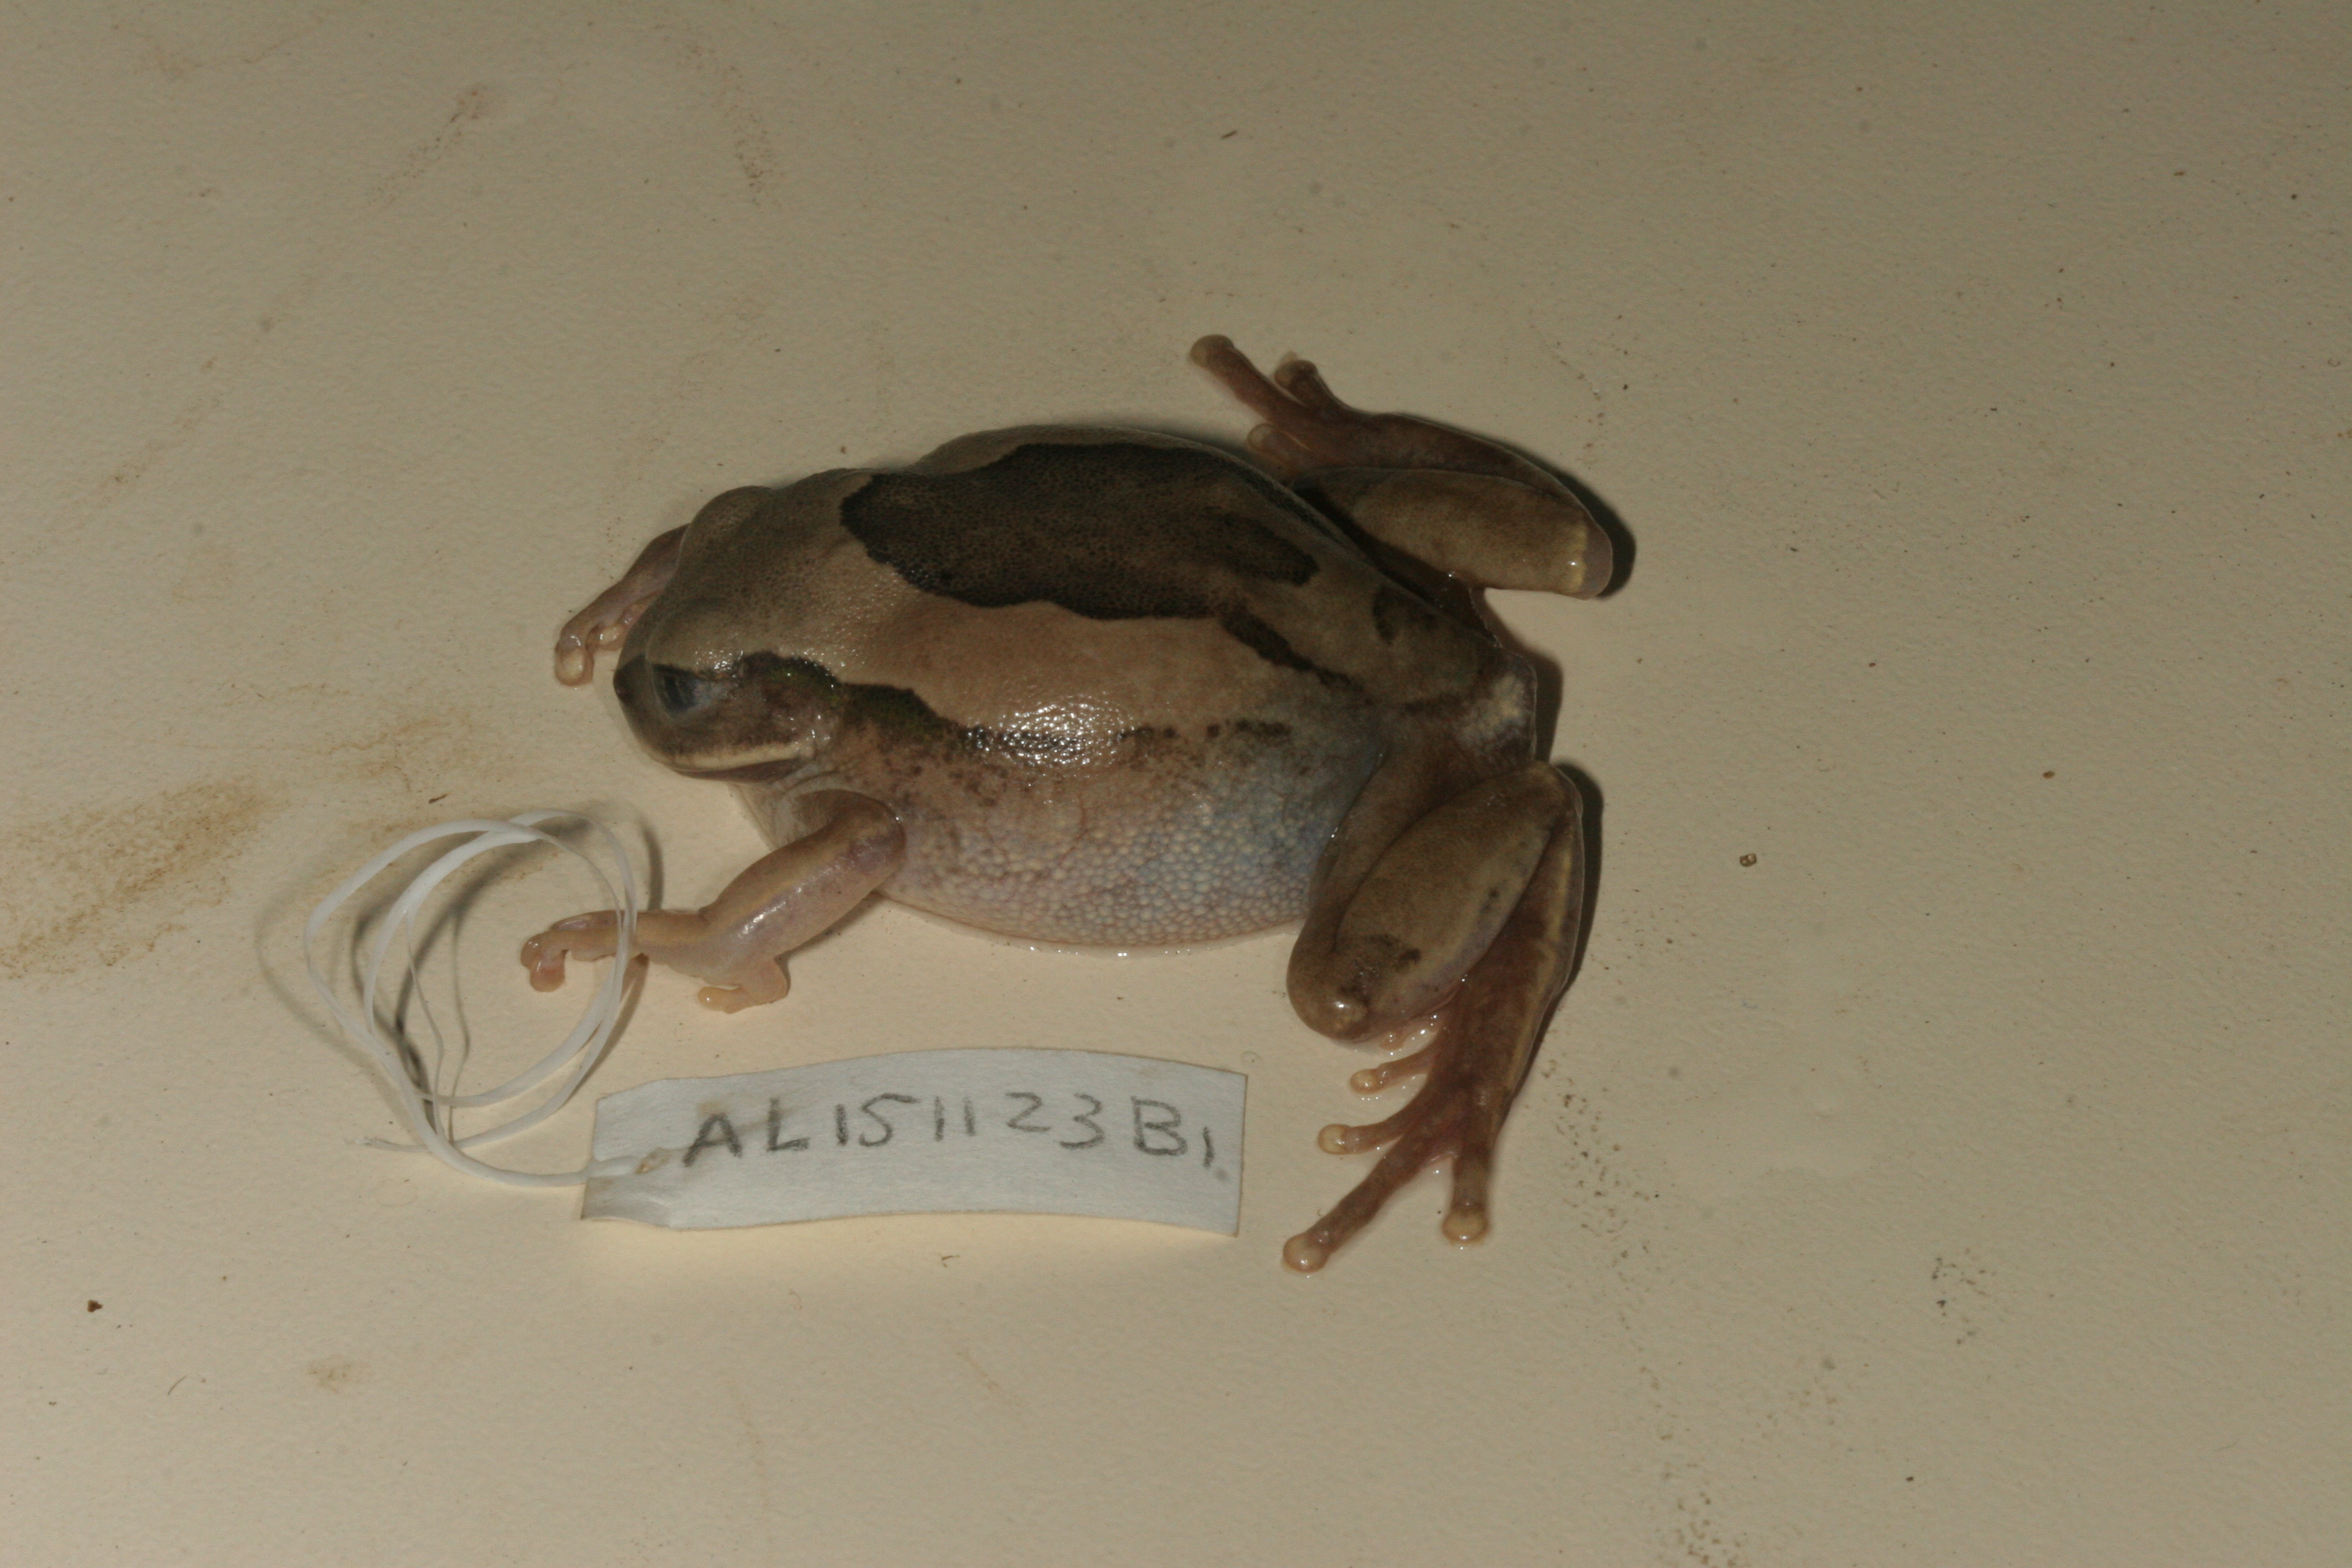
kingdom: Animalia
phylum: Chordata
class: Amphibia
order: Anura
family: Arthroleptidae
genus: Leptopelis
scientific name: Leptopelis mossambicus
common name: Mozambique tree frog
